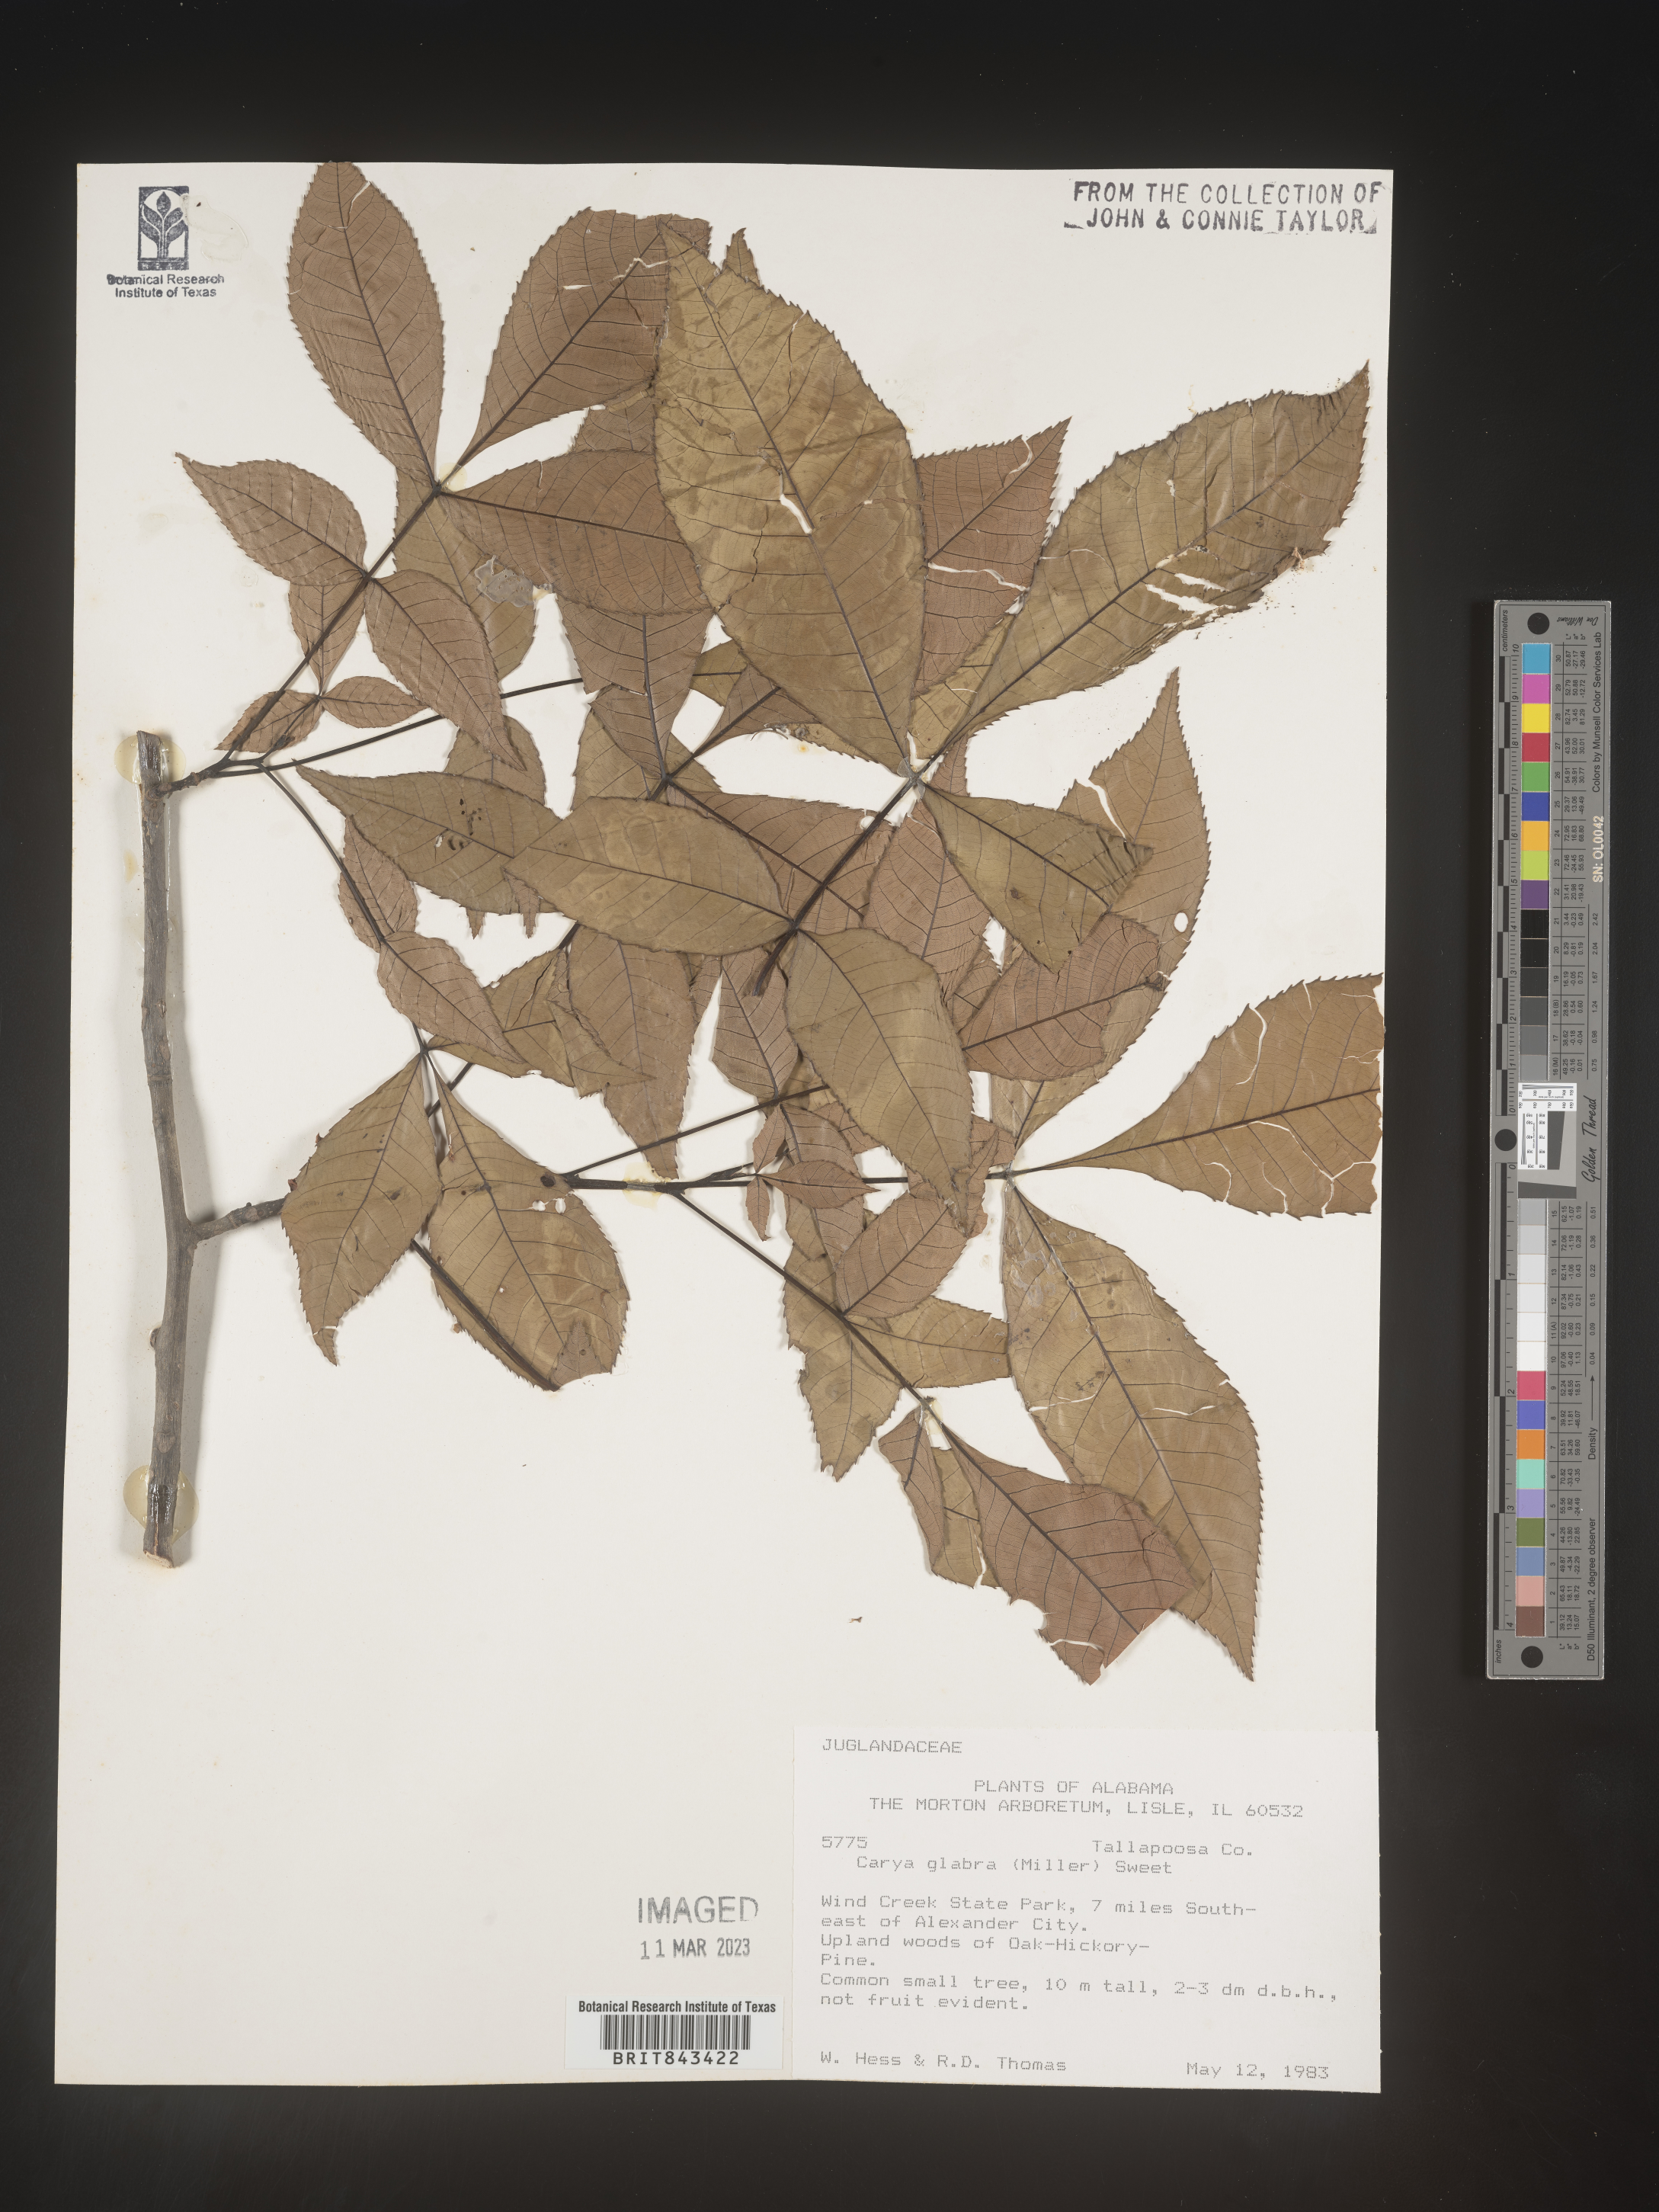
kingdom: Plantae
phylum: Tracheophyta
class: Magnoliopsida
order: Fagales
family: Juglandaceae
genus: Carya
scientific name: Carya glabra
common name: Pignut hickory
